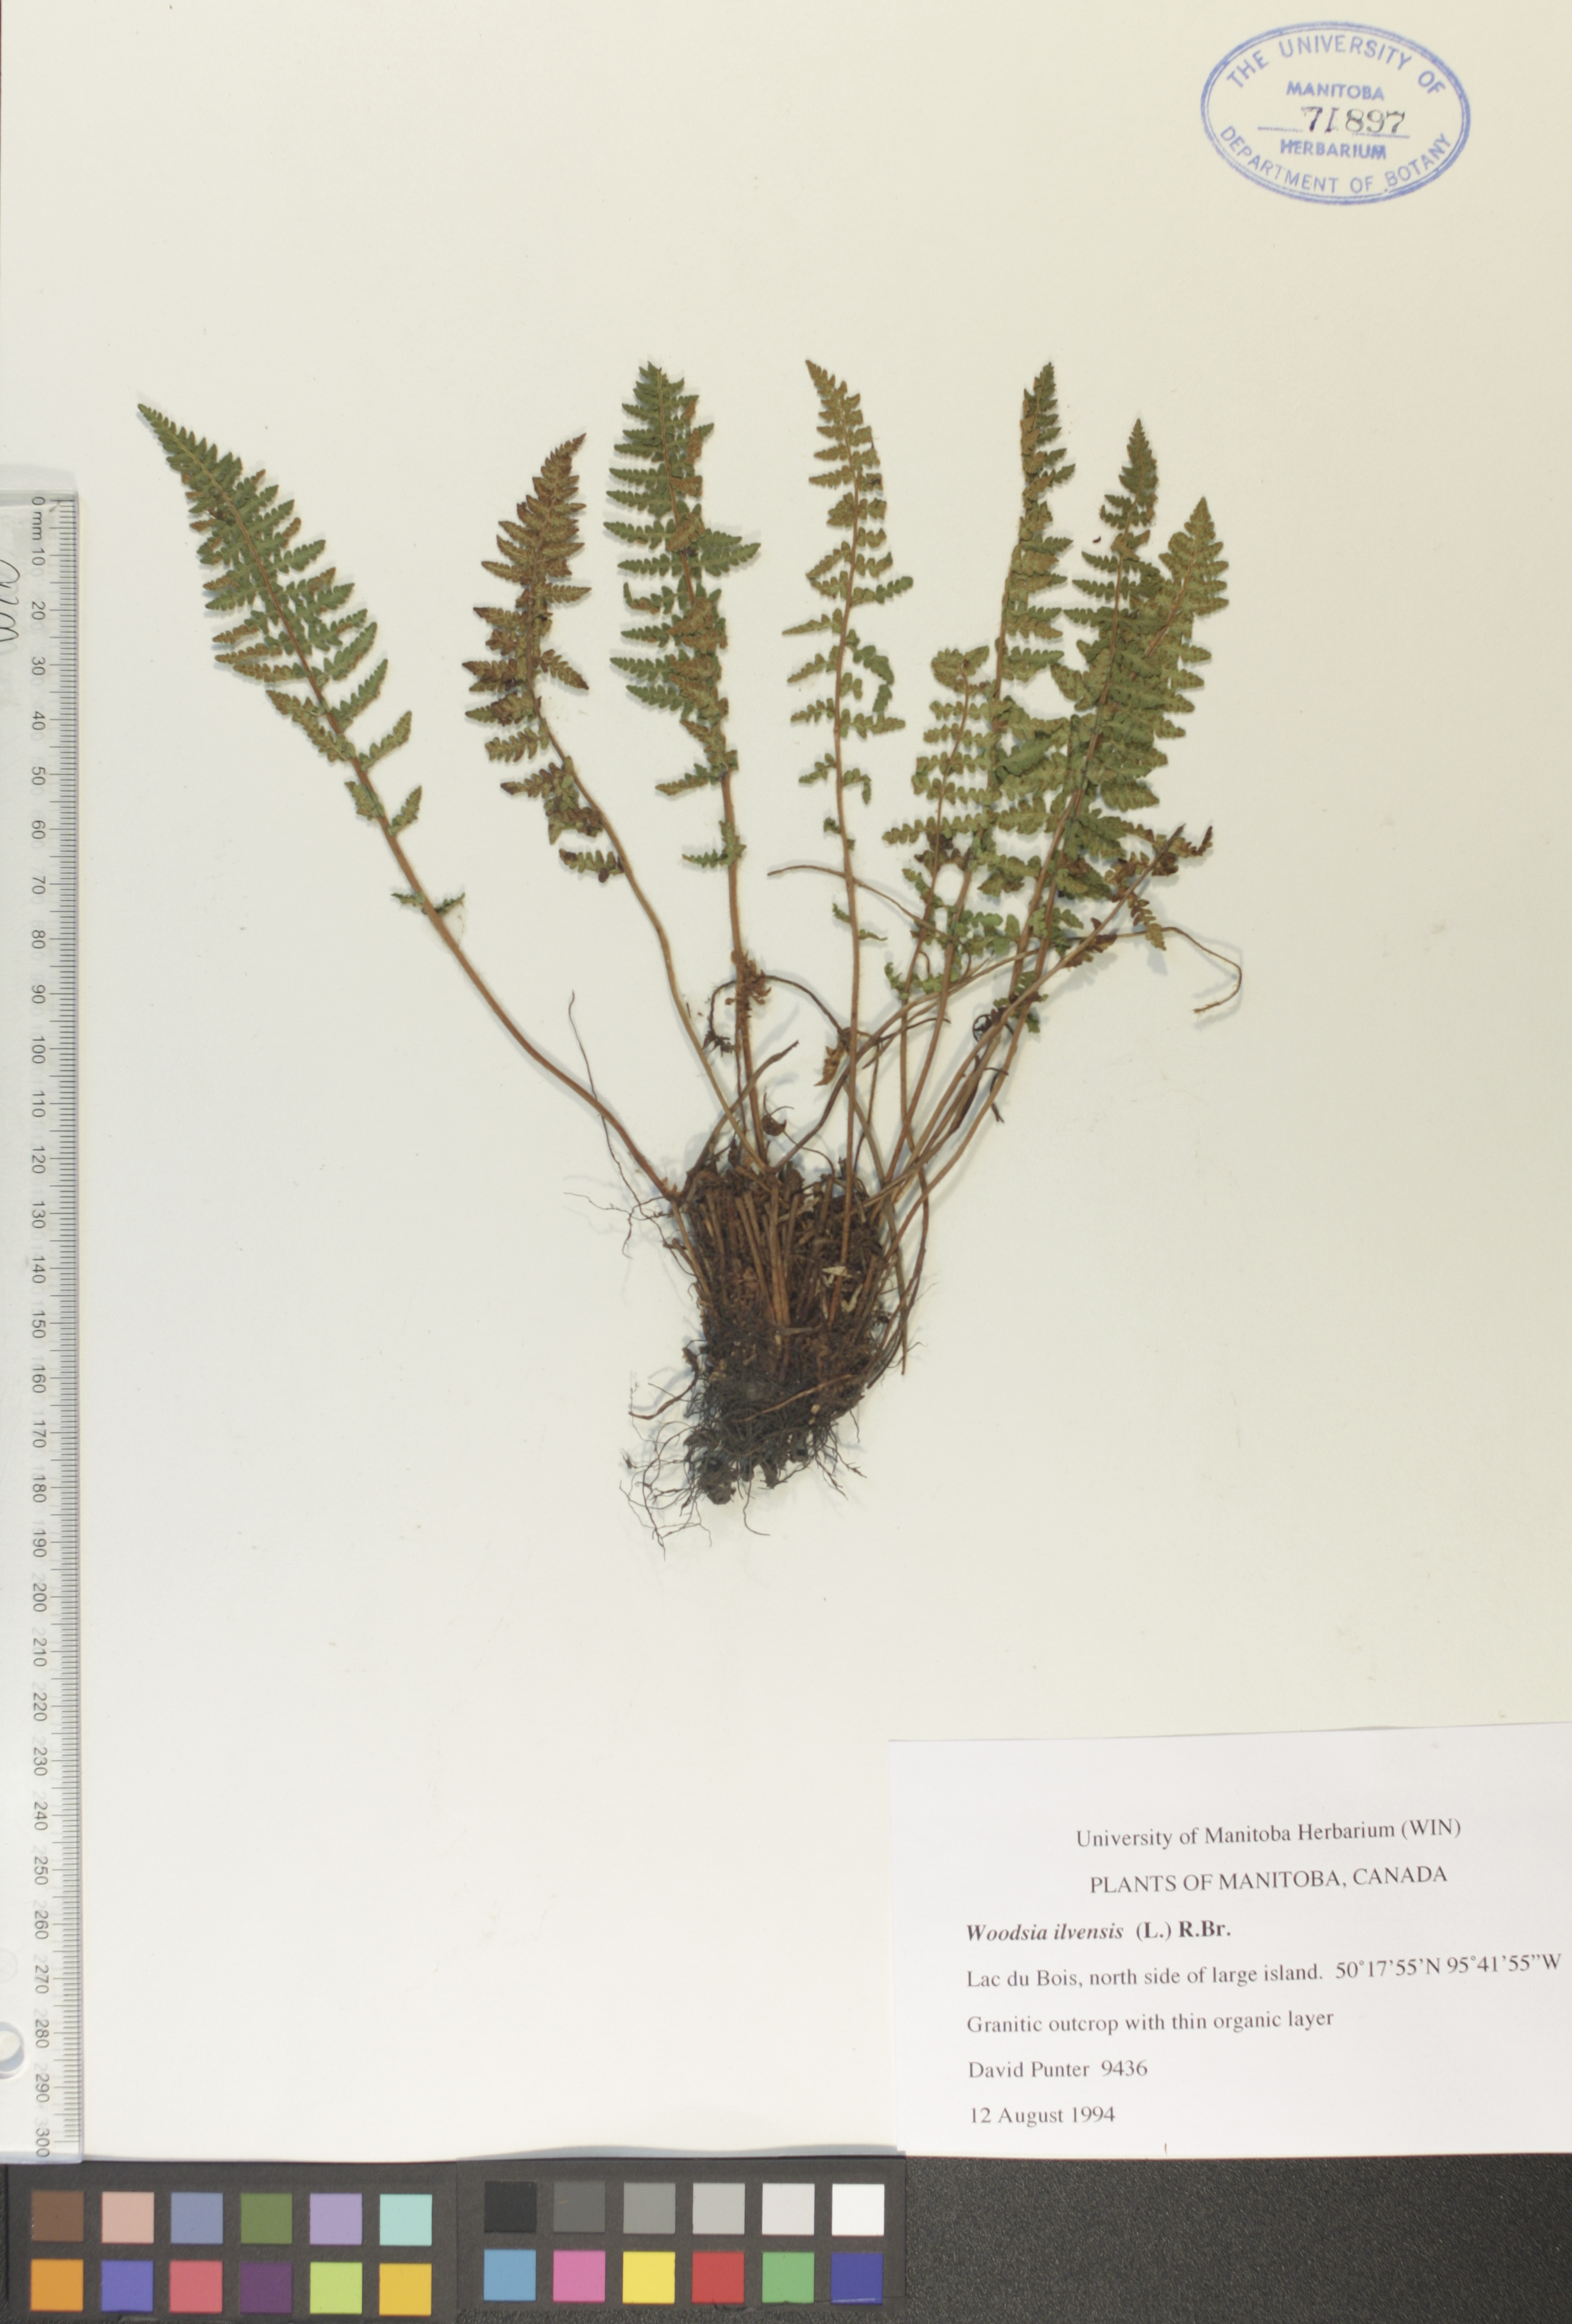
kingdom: Plantae
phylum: Tracheophyta
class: Polypodiopsida
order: Polypodiales
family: Woodsiaceae
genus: Woodsia
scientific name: Woodsia ilvensis
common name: Fragrant woodsia
